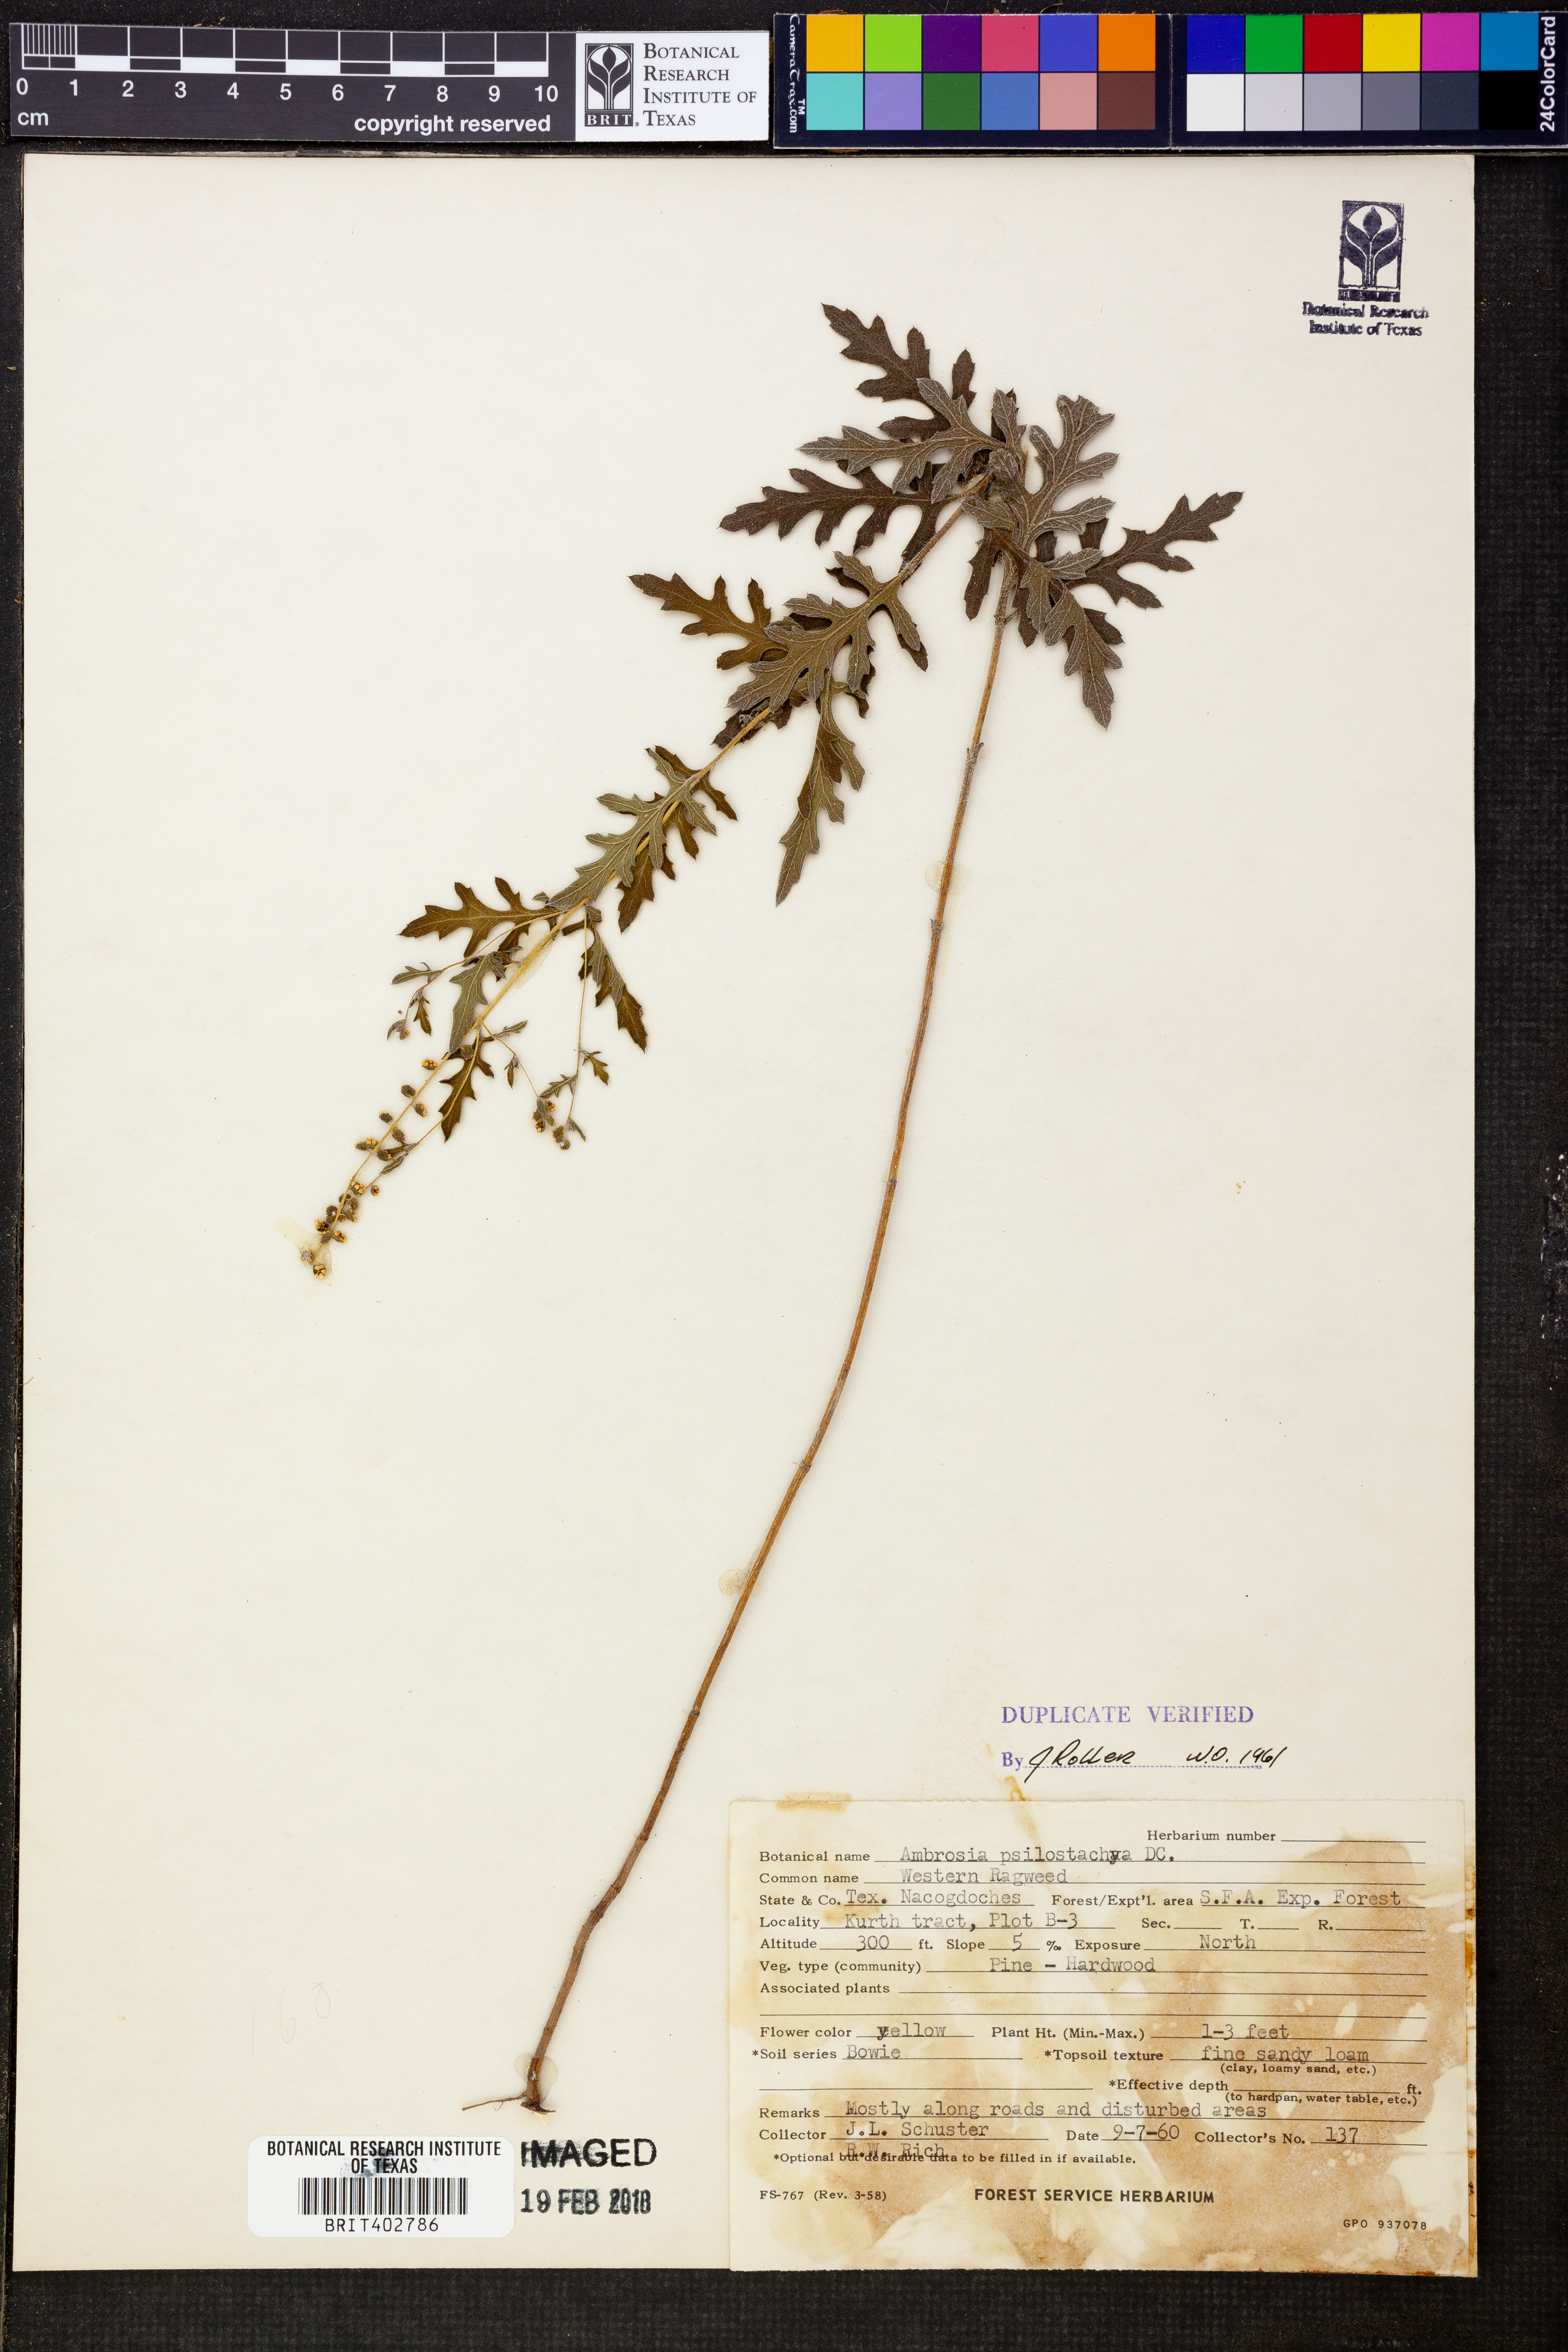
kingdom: Plantae
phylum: Tracheophyta
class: Magnoliopsida
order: Asterales
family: Asteraceae
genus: Ambrosia
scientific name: Ambrosia psilostachya
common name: Perennial ragweed
